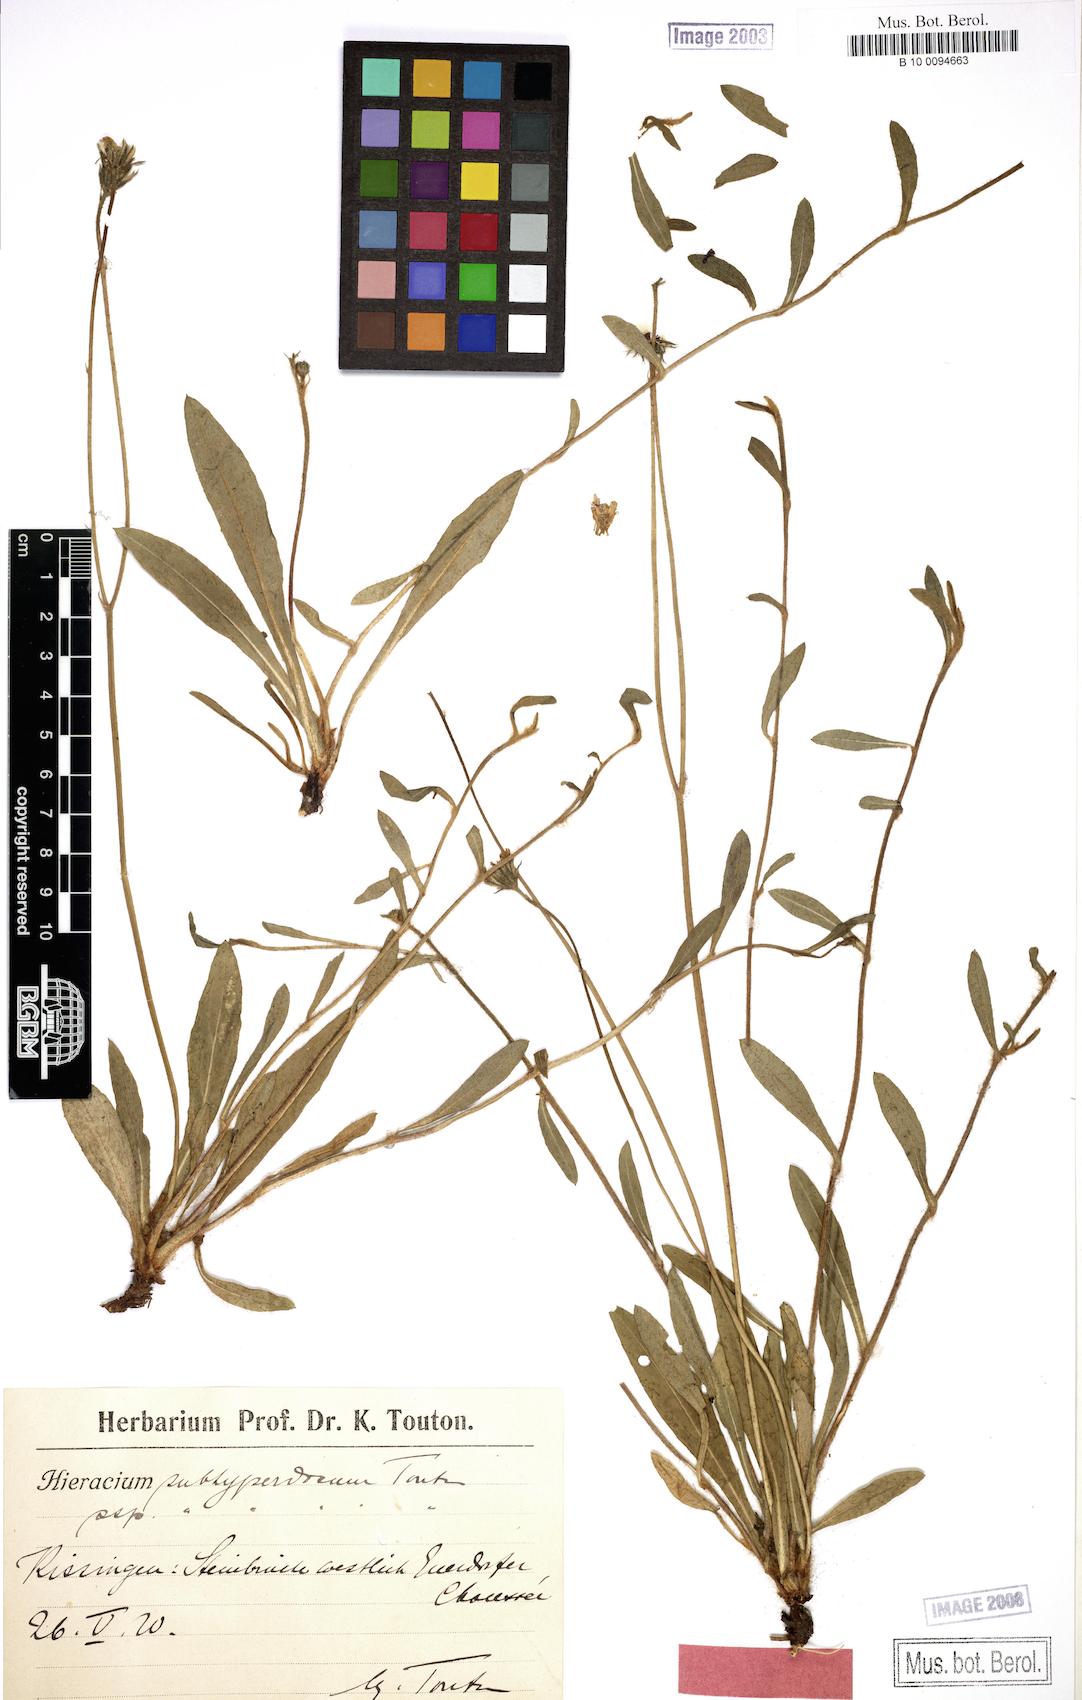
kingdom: Plantae
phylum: Tracheophyta
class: Magnoliopsida
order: Asterales
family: Asteraceae
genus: Pilosella
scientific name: Pilosella pilosellina
